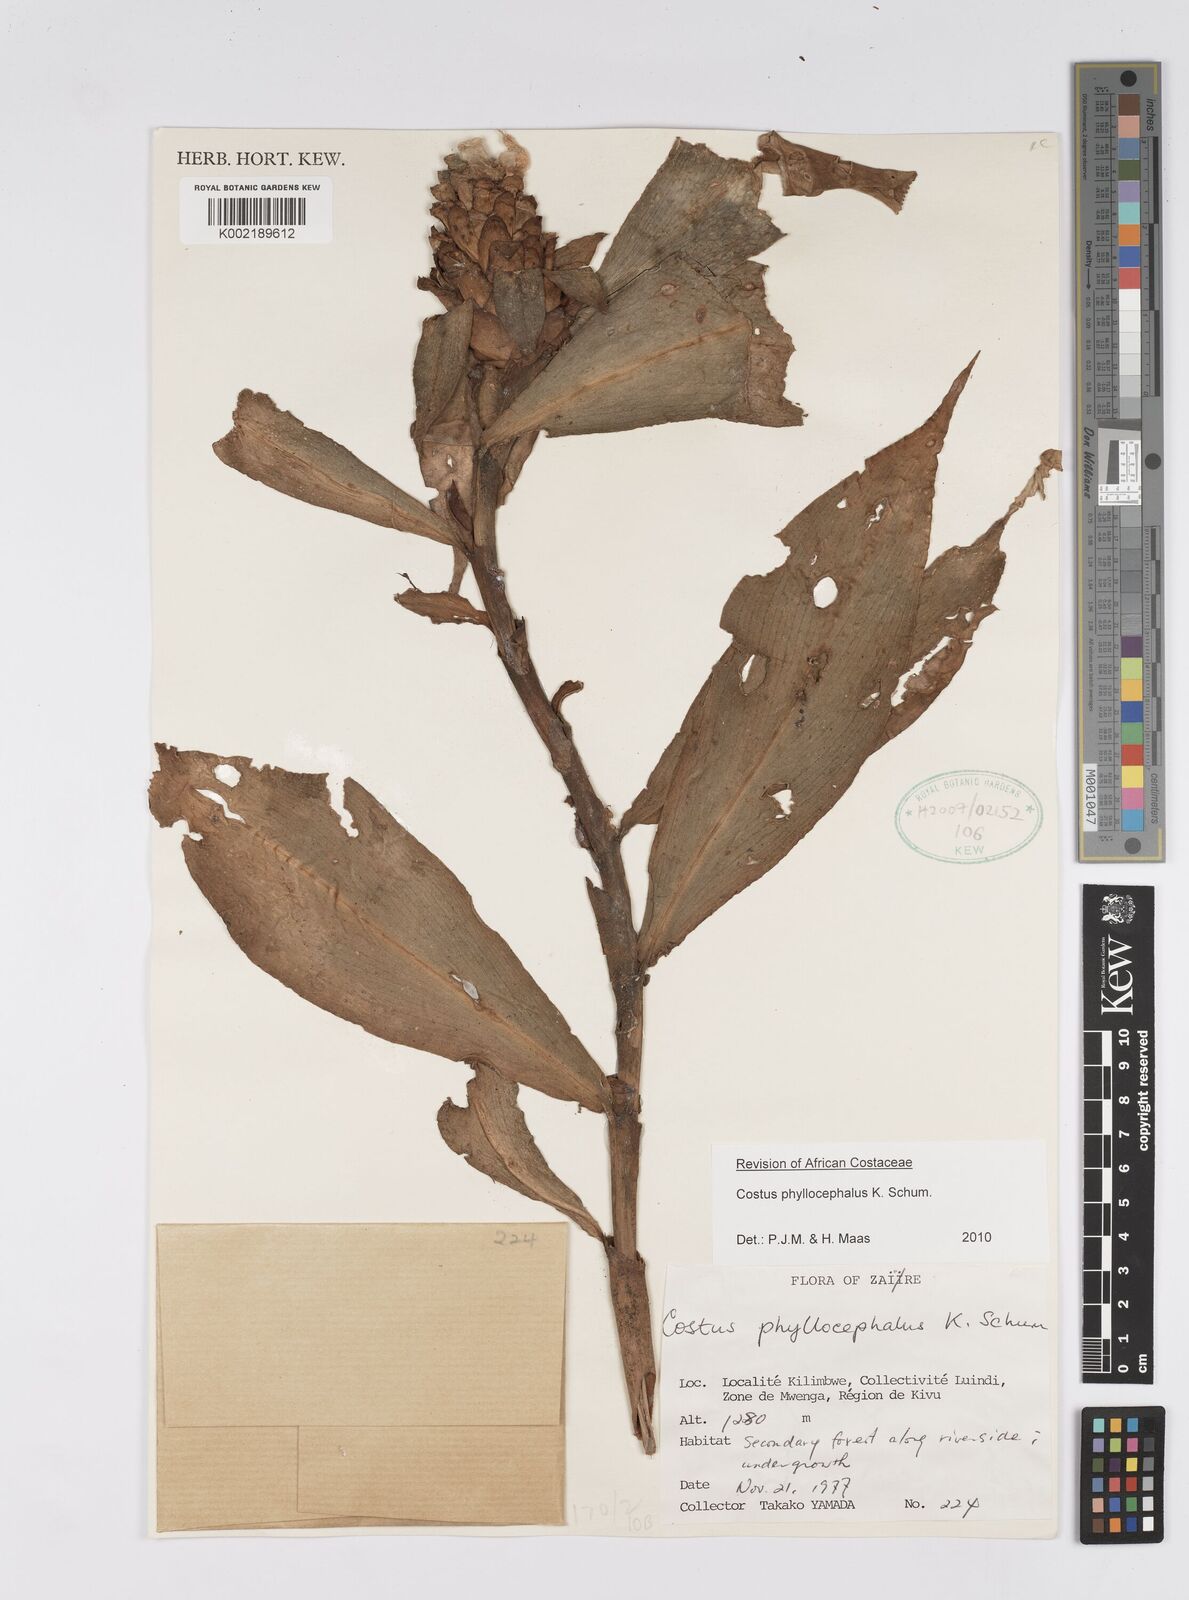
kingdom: Plantae
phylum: Tracheophyta
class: Liliopsida
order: Zingiberales
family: Costaceae
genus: Costus
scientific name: Costus phyllocephalus
